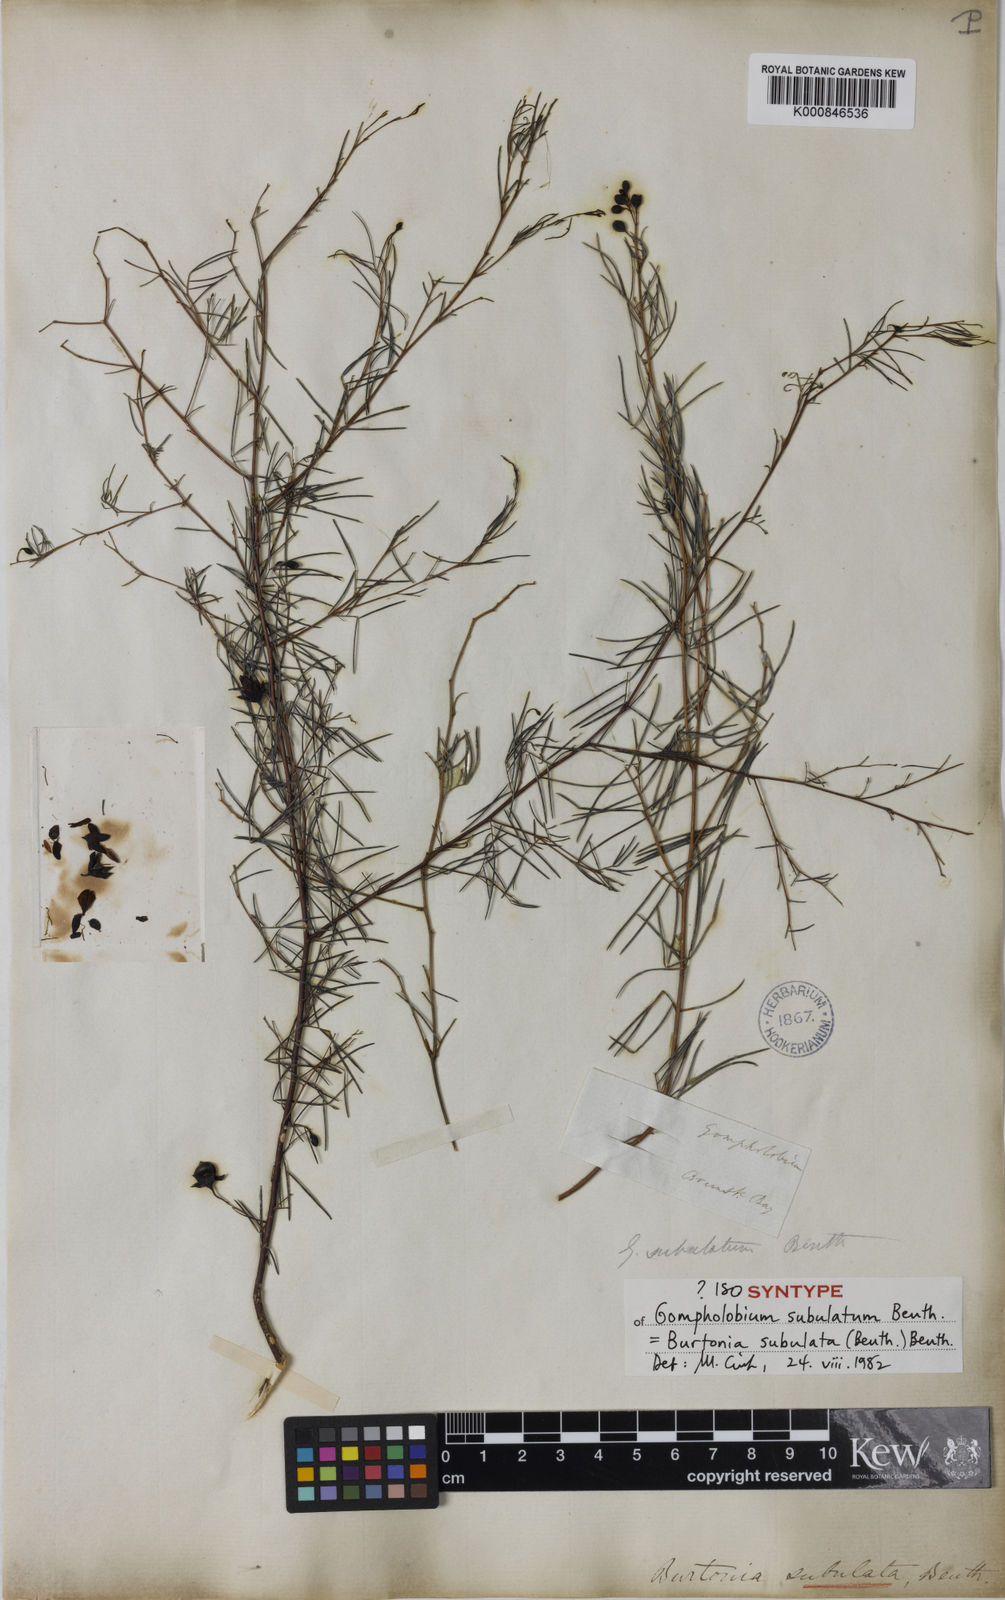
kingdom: Plantae
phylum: Tracheophyta
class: Magnoliopsida
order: Fabales
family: Fabaceae
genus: Gompholobium
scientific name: Gompholobium subulatum
